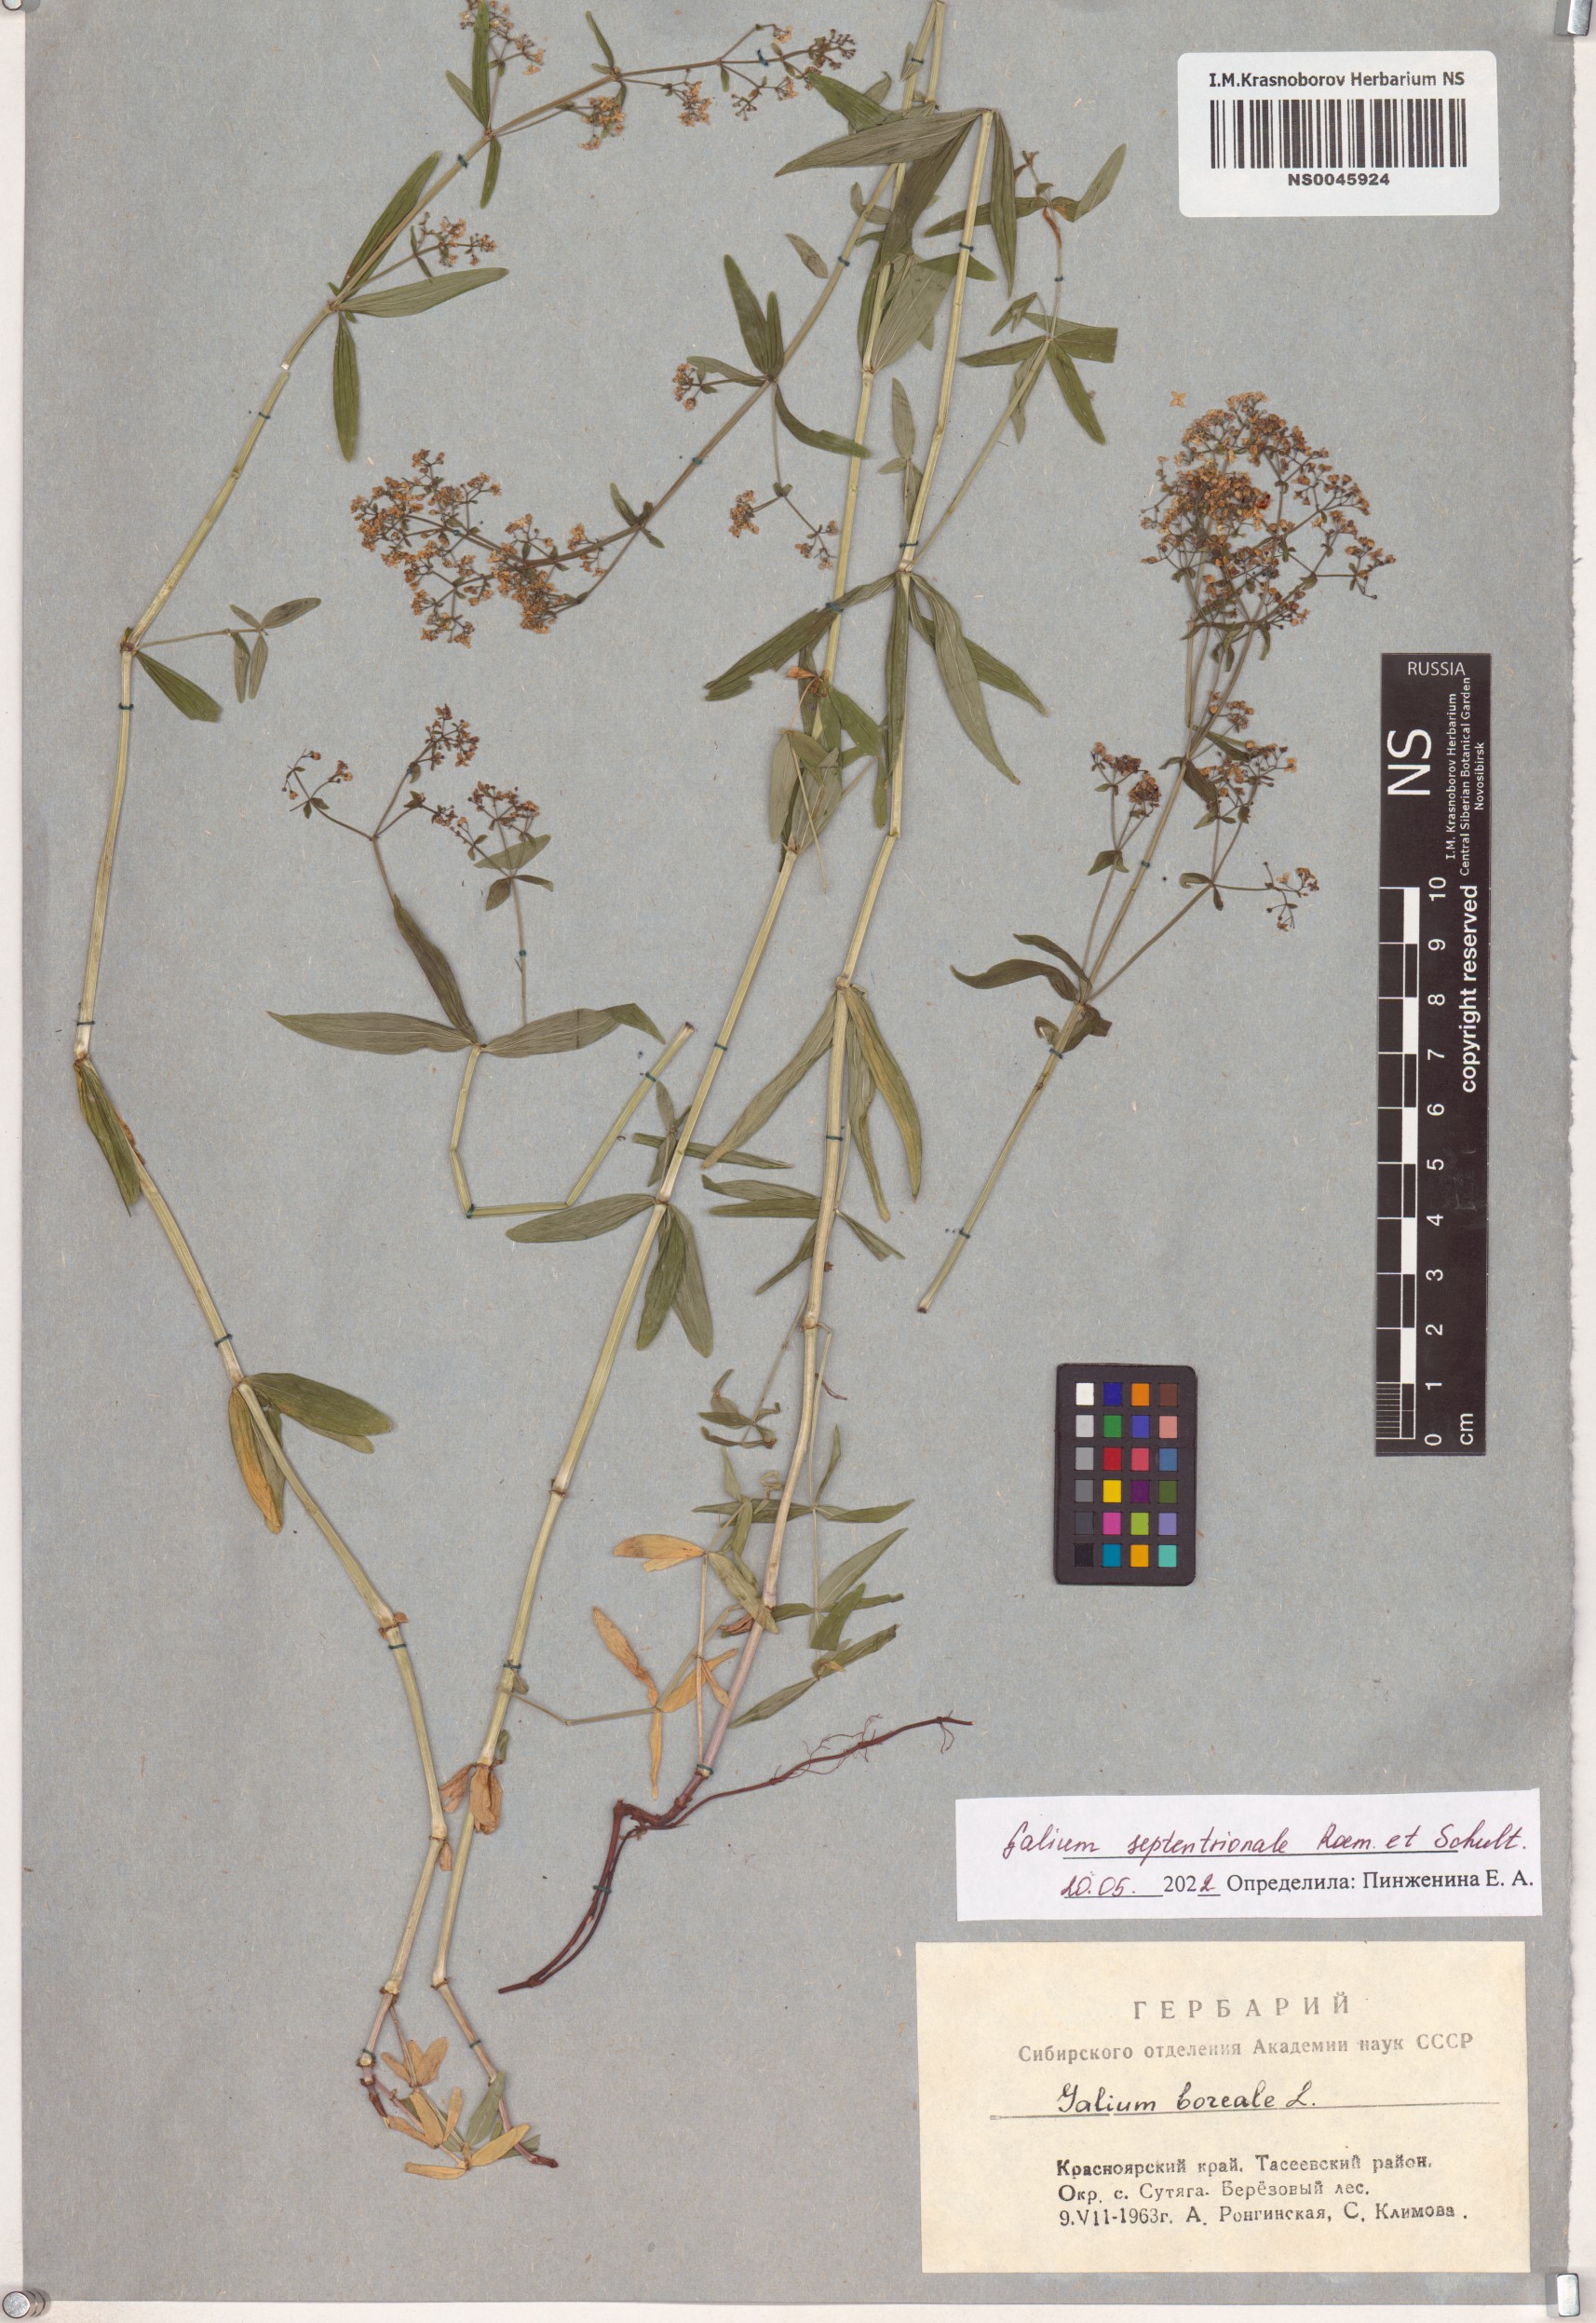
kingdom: Plantae
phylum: Tracheophyta
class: Magnoliopsida
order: Gentianales
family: Rubiaceae
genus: Galium
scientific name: Galium boreale
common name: Northern bedstraw
